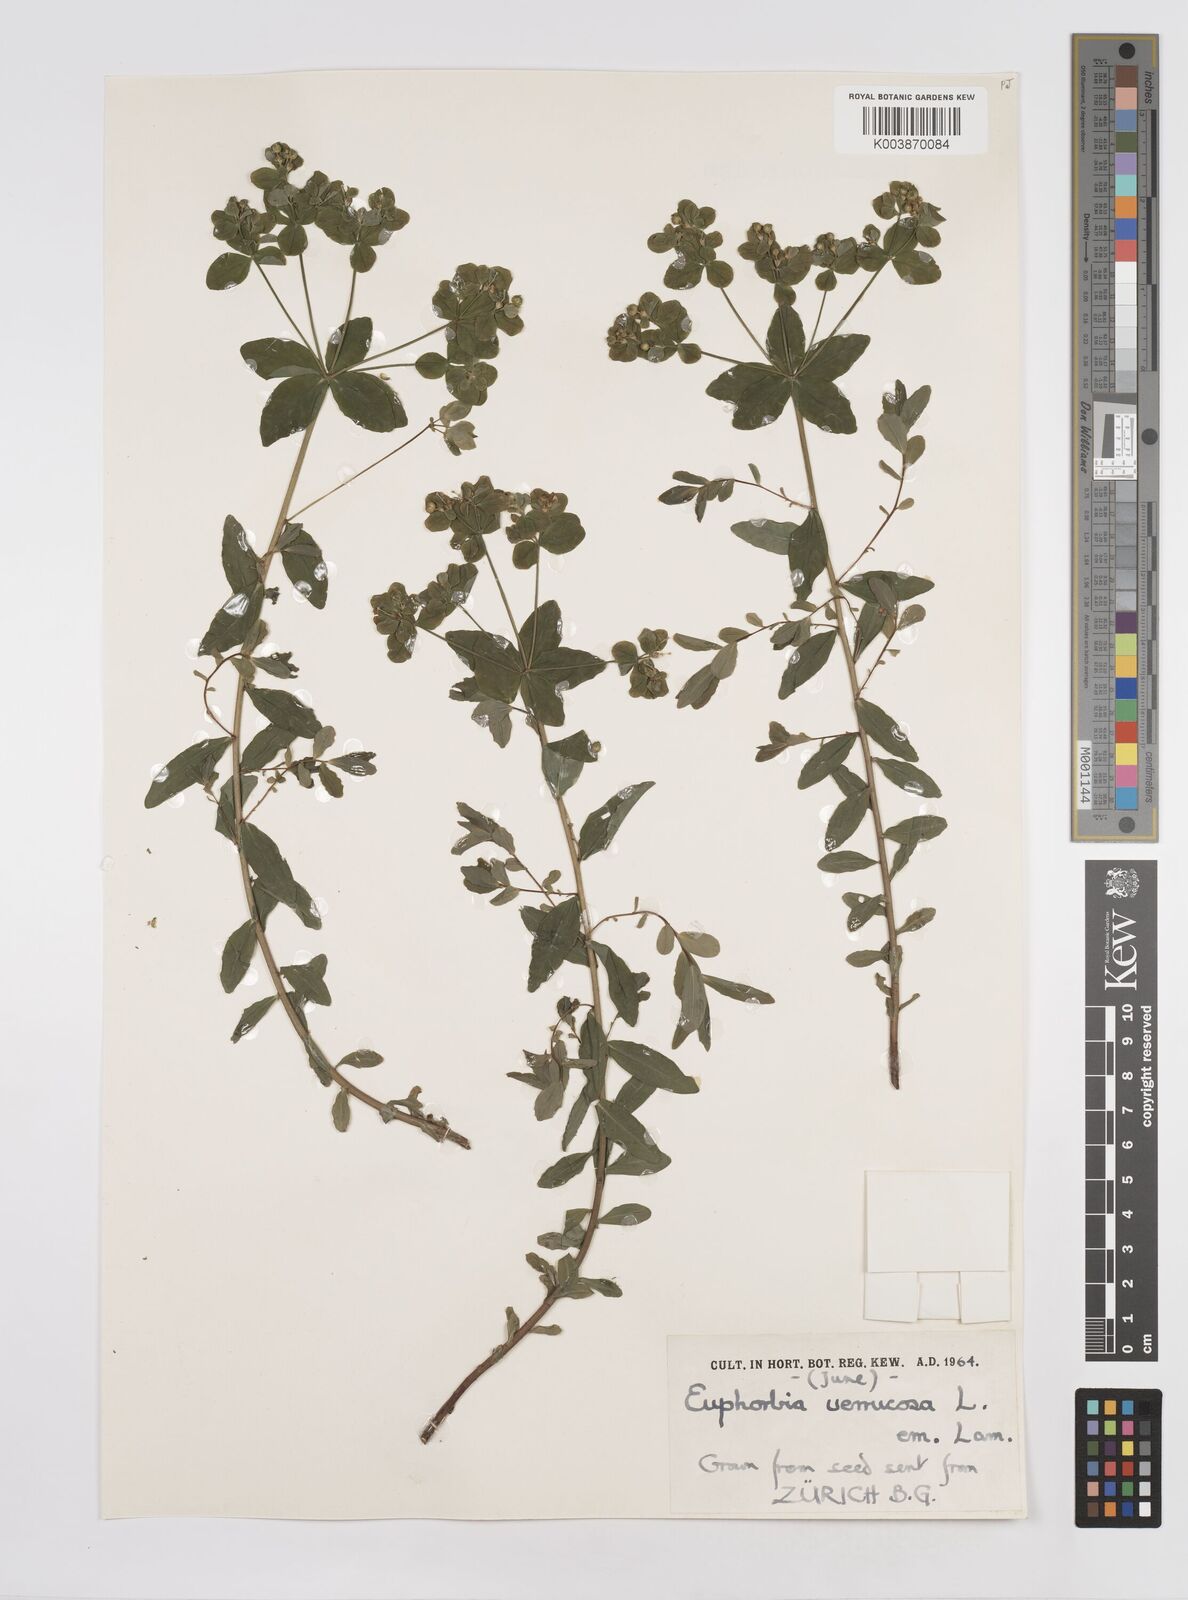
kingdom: Plantae
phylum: Tracheophyta
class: Magnoliopsida
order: Malpighiales
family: Euphorbiaceae
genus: Euphorbia
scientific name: Euphorbia
